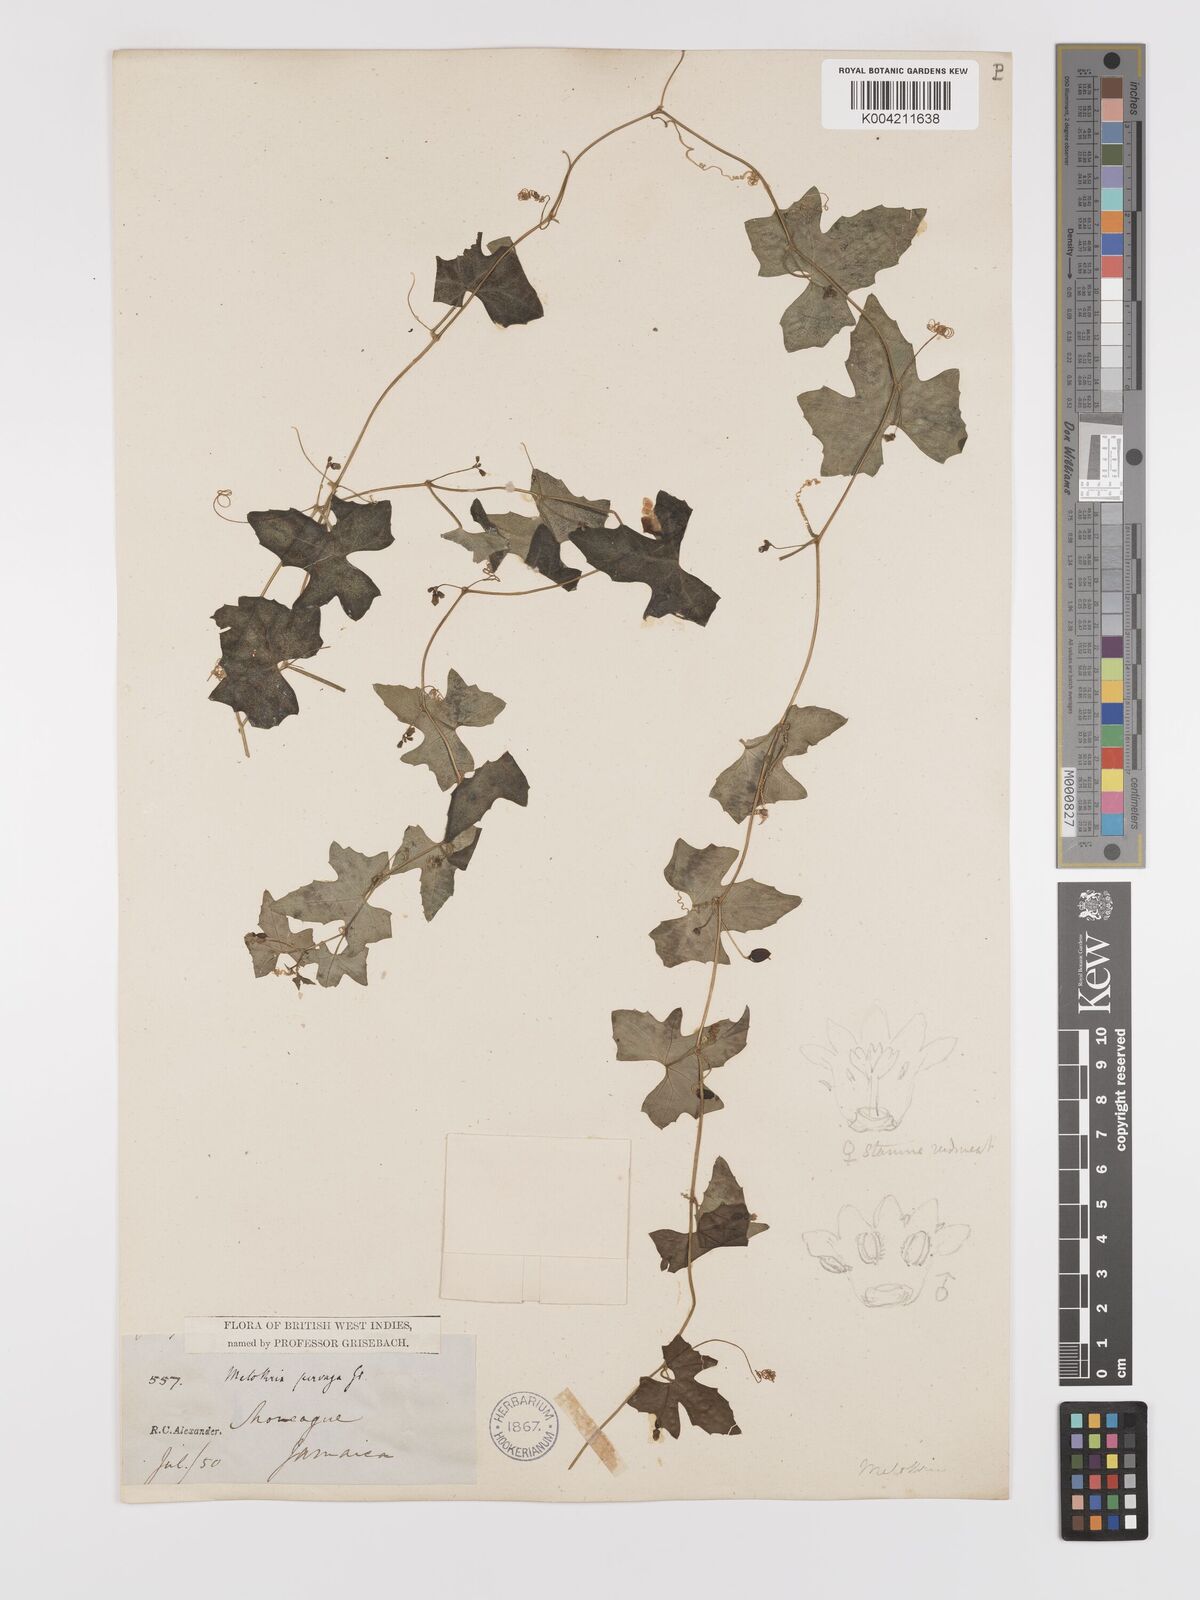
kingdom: Plantae
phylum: Tracheophyta
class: Magnoliopsida
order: Cucurbitales
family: Cucurbitaceae
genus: Melothria
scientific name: Melothria
